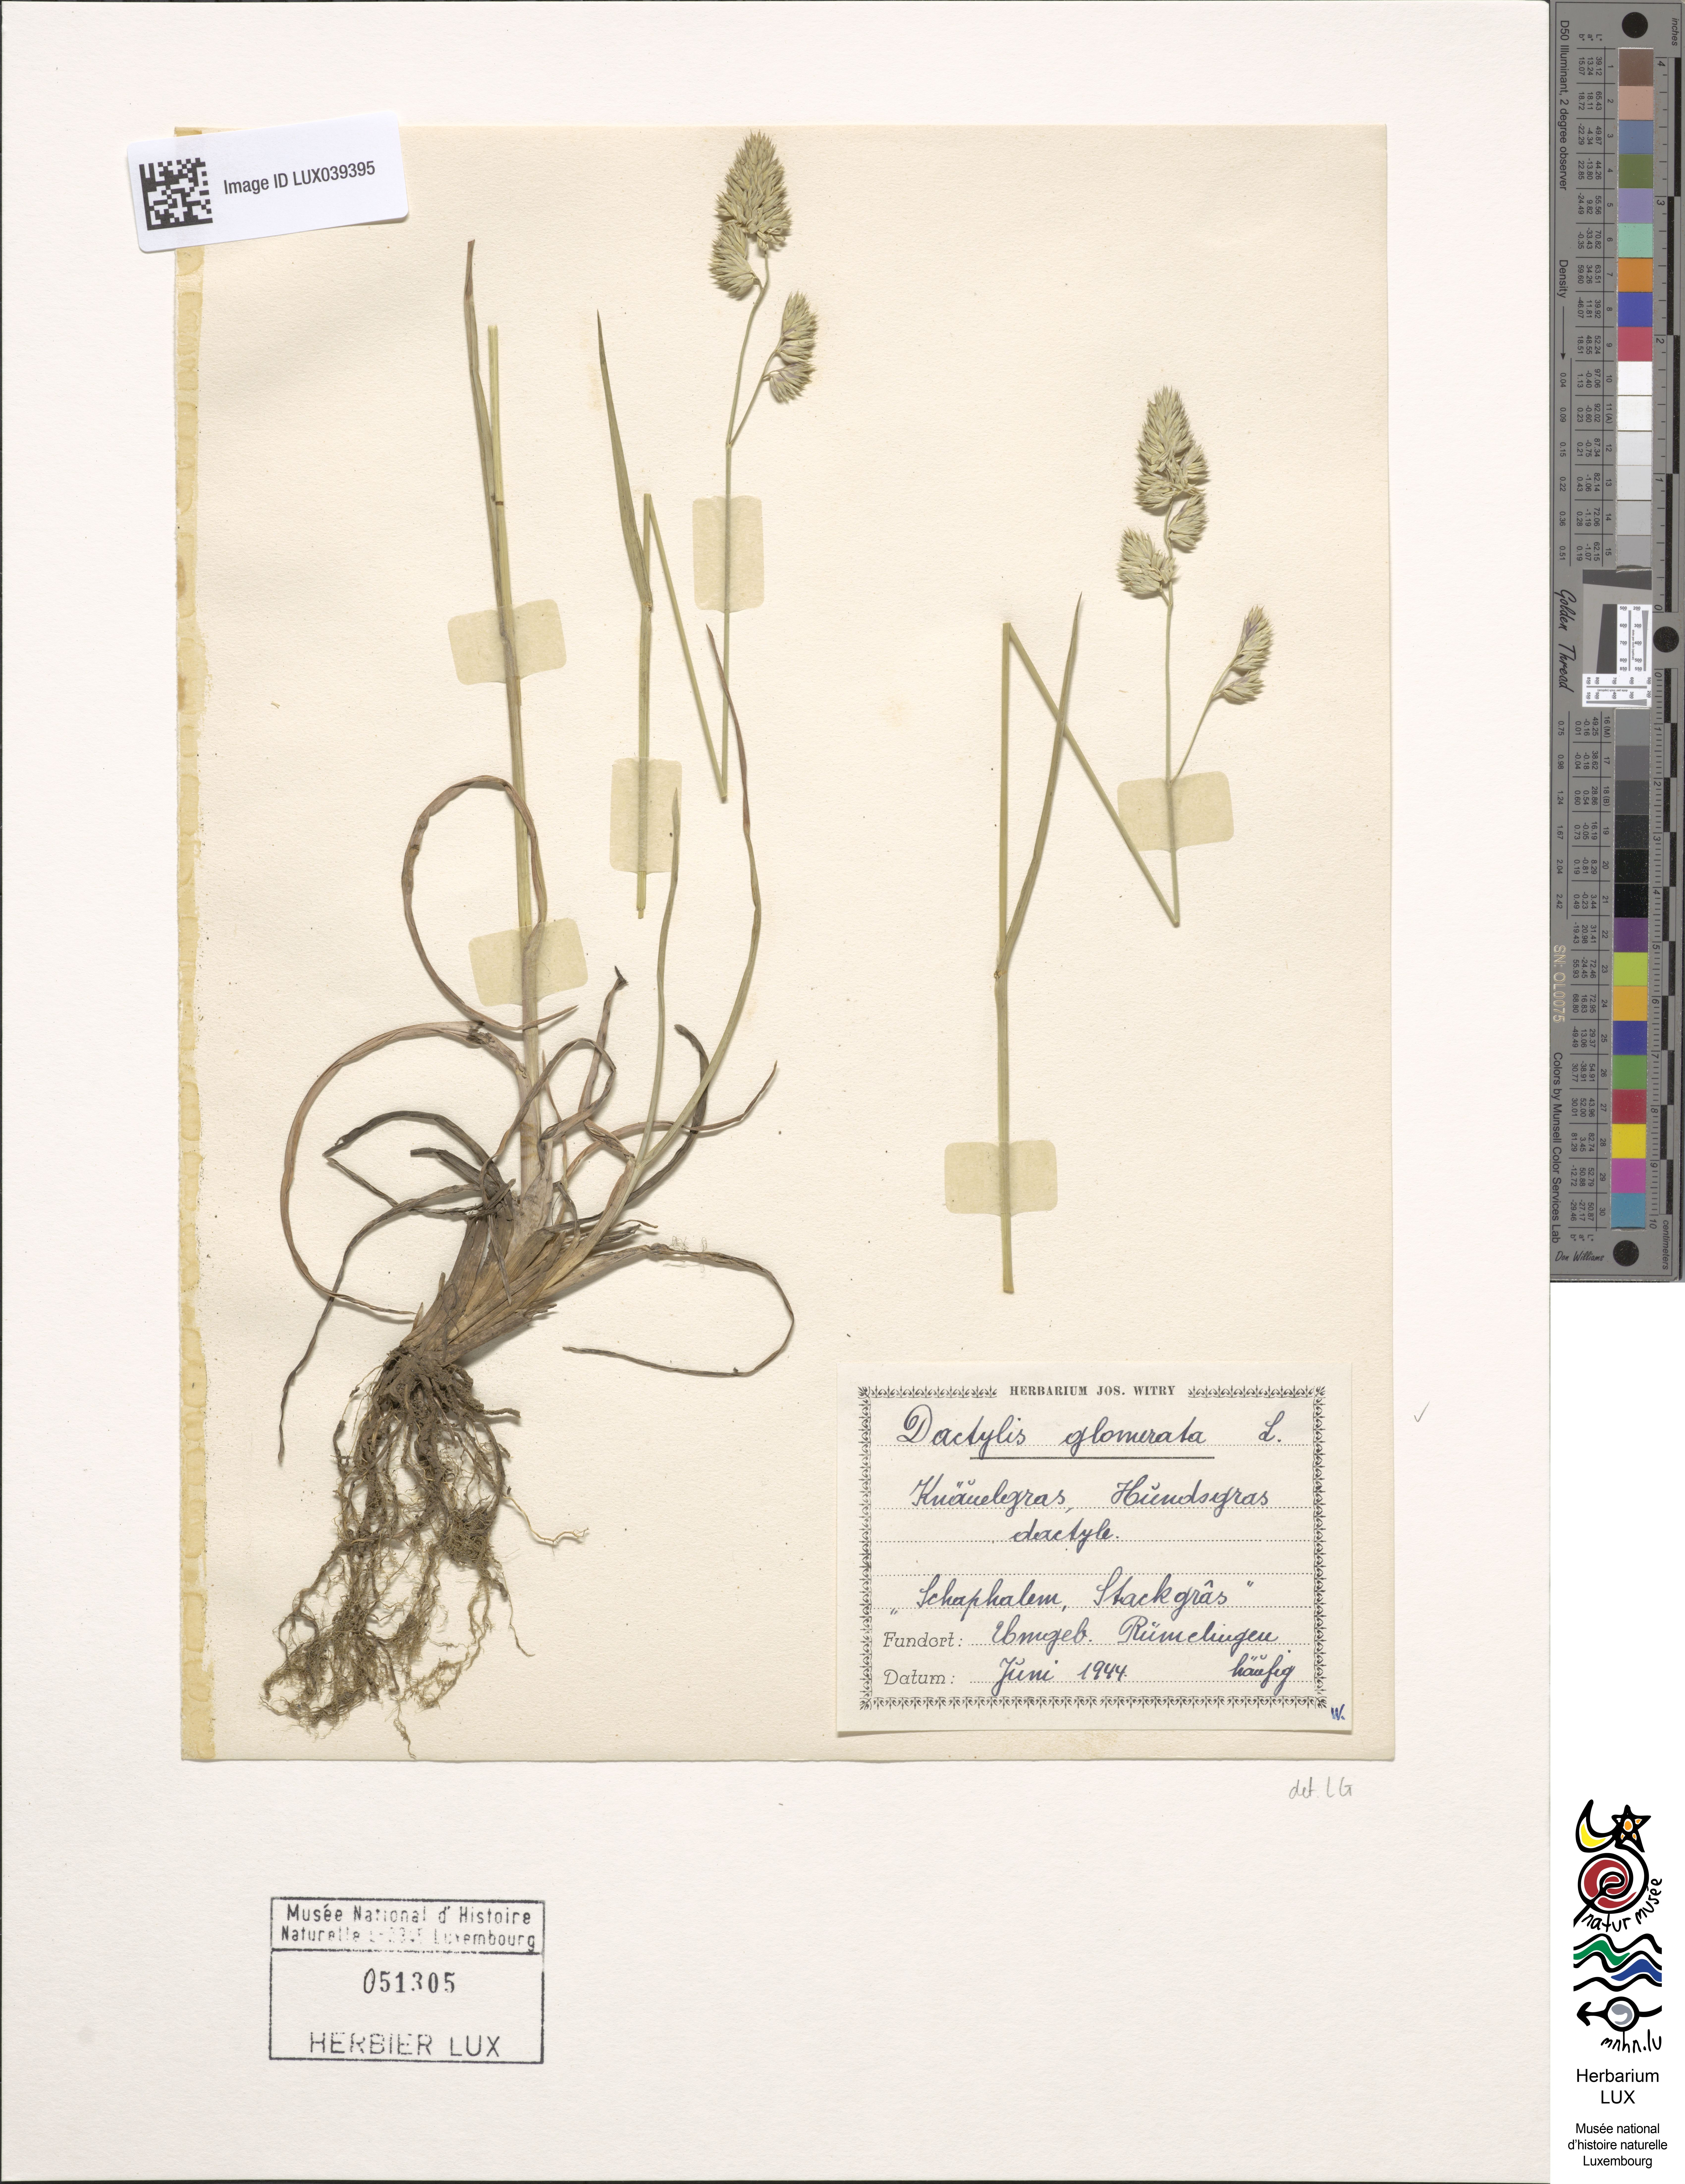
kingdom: Plantae
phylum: Tracheophyta
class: Liliopsida
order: Poales
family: Poaceae
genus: Dactylis
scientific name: Dactylis glomerata
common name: Orchardgrass
